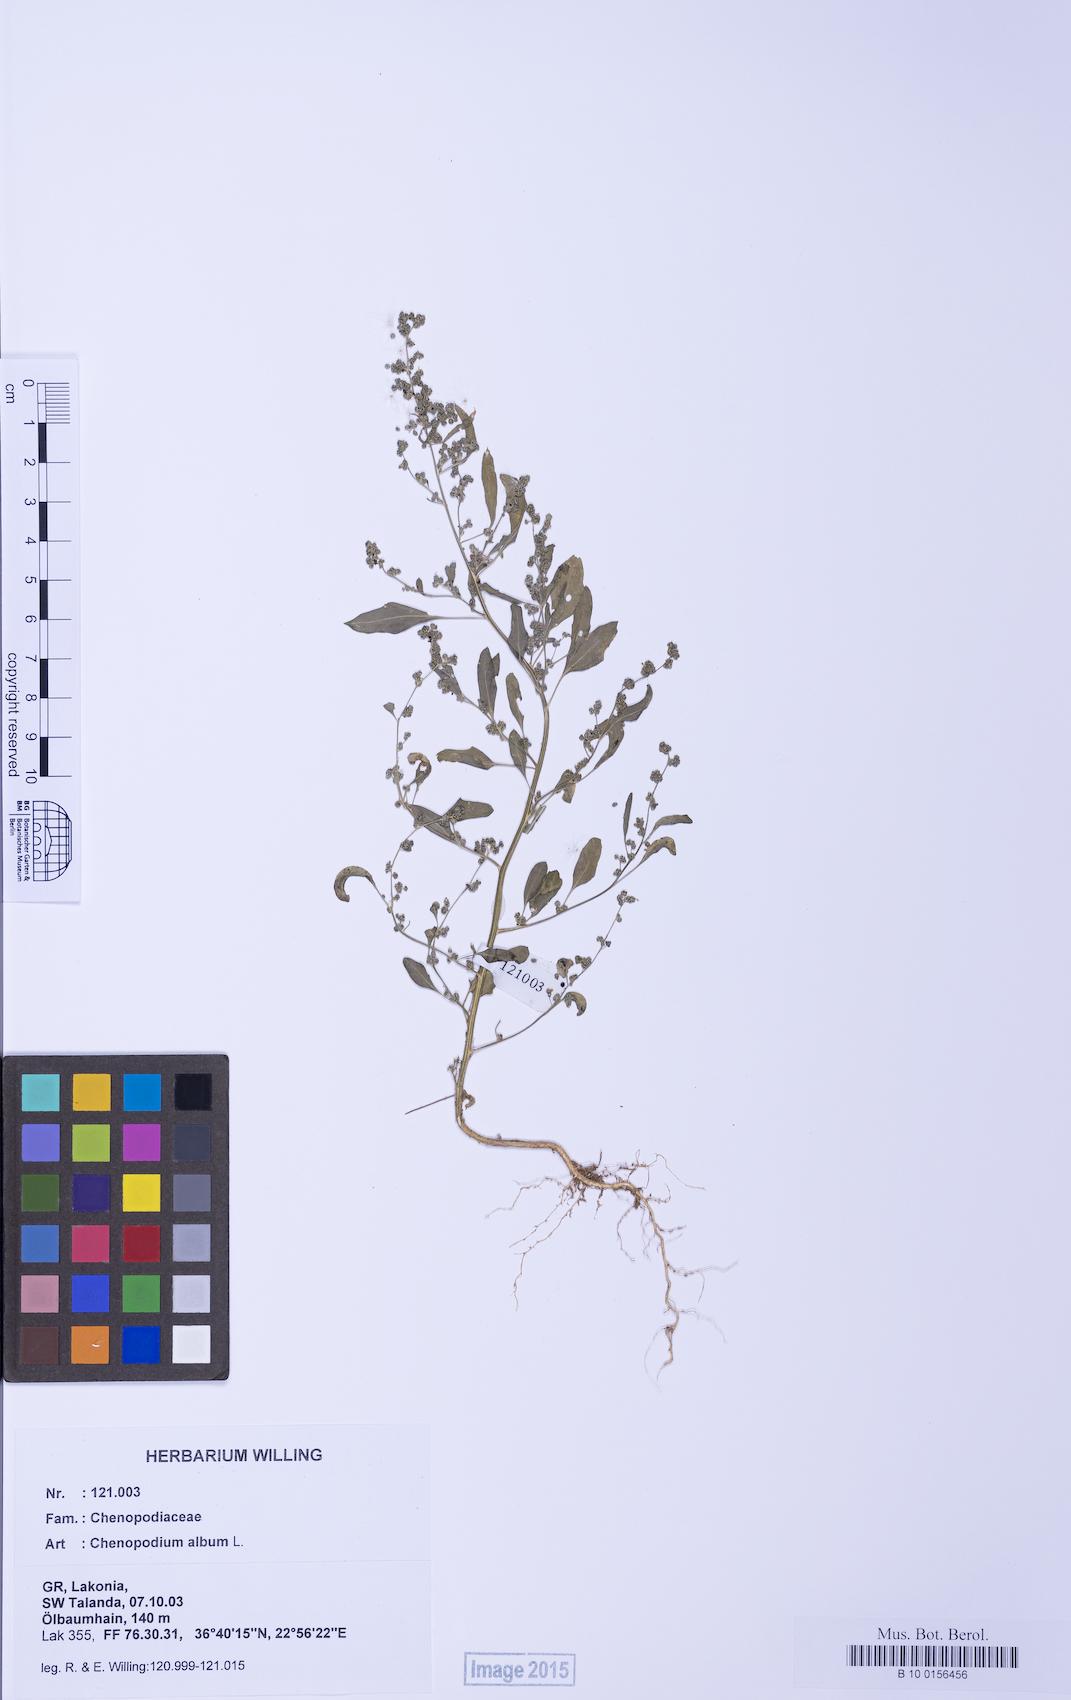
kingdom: Plantae
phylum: Tracheophyta
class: Magnoliopsida
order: Caryophyllales
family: Amaranthaceae
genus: Chenopodium
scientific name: Chenopodium album
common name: Fat-hen
